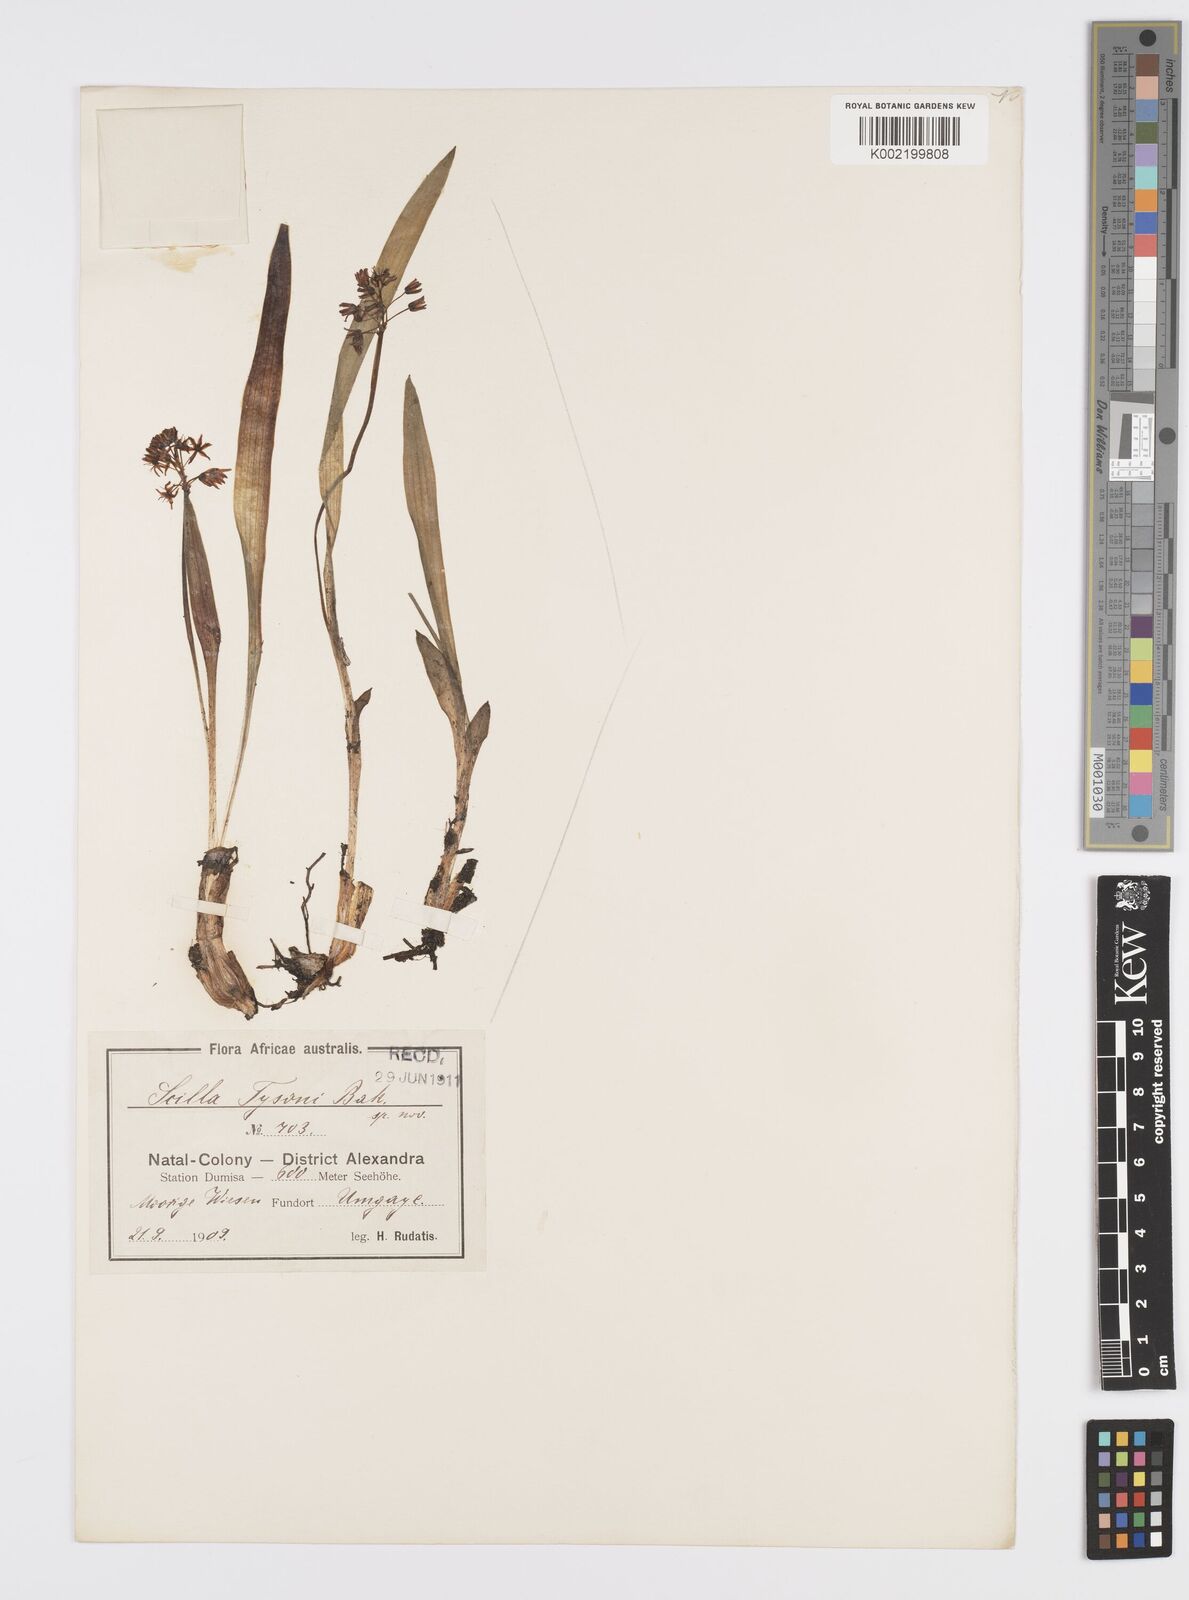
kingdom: Plantae
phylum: Tracheophyta
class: Liliopsida
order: Asparagales
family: Asparagaceae
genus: Ledebouria
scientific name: Ledebouria cooperi
